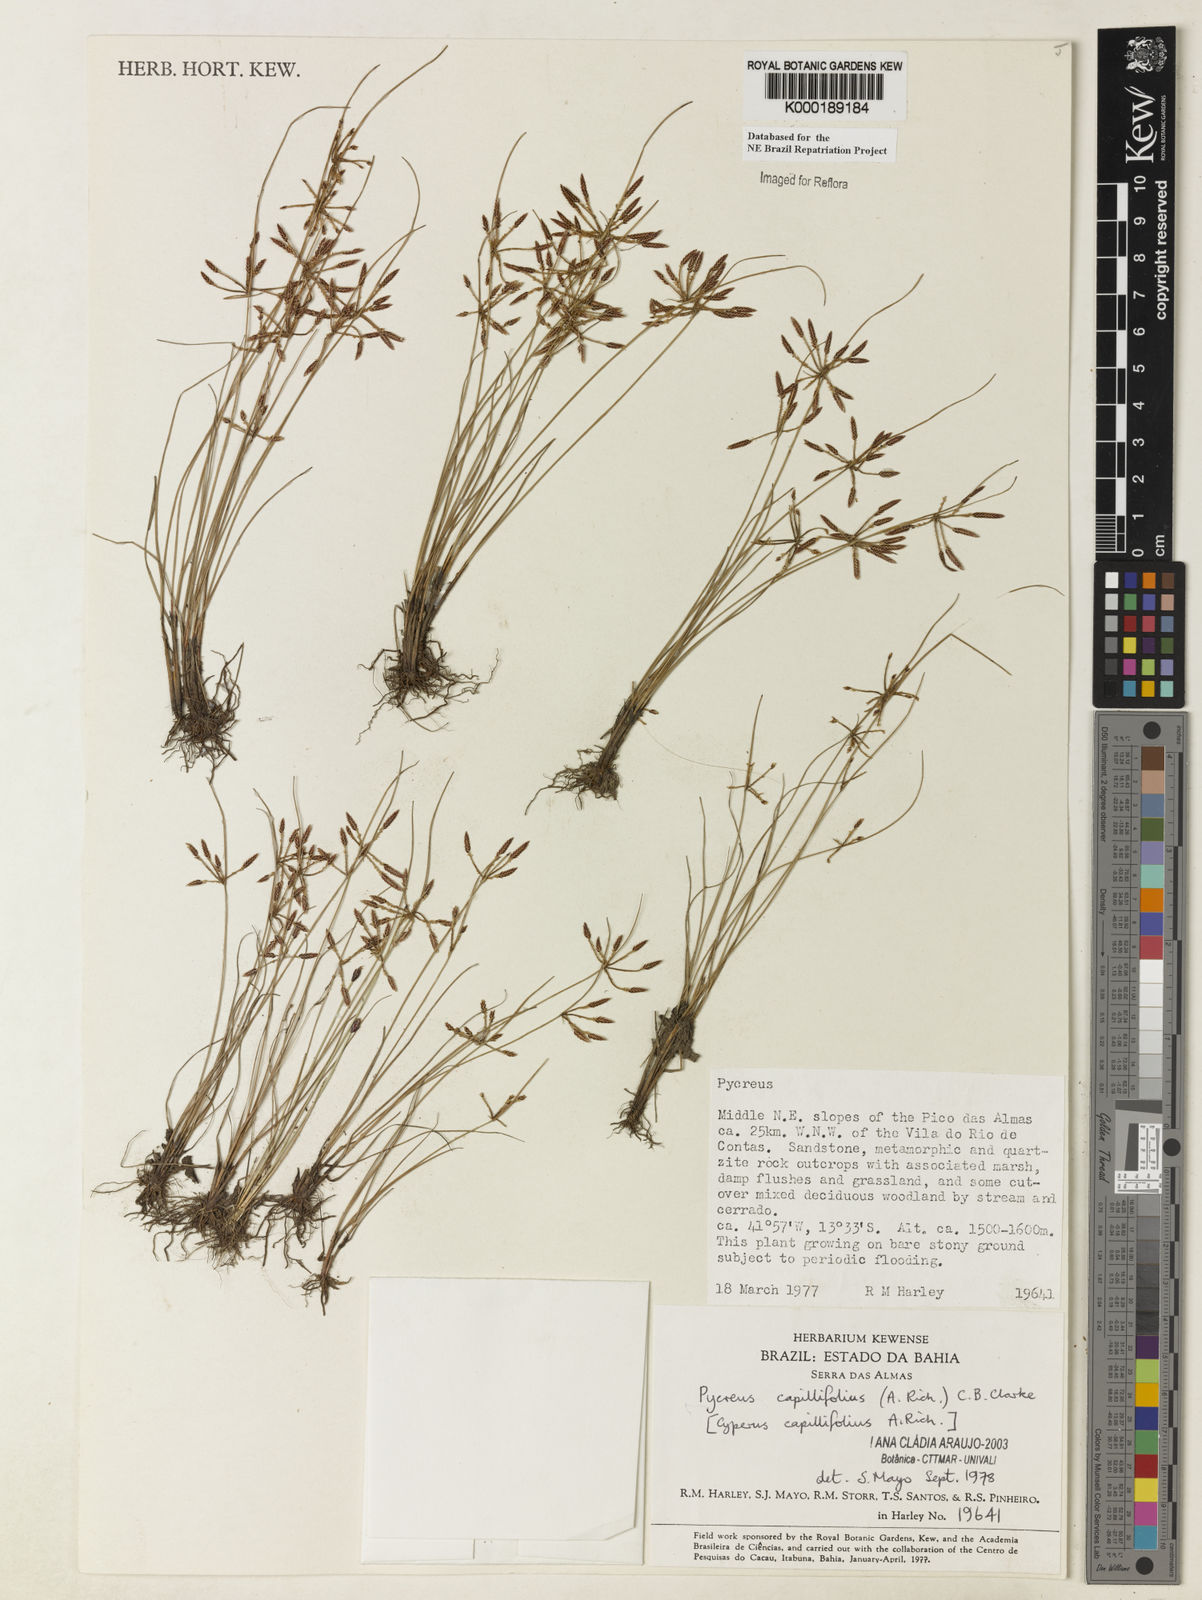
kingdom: Plantae
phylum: Tracheophyta
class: Liliopsida
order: Poales
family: Cyperaceae
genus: Cyperus
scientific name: Cyperus capillifolius
